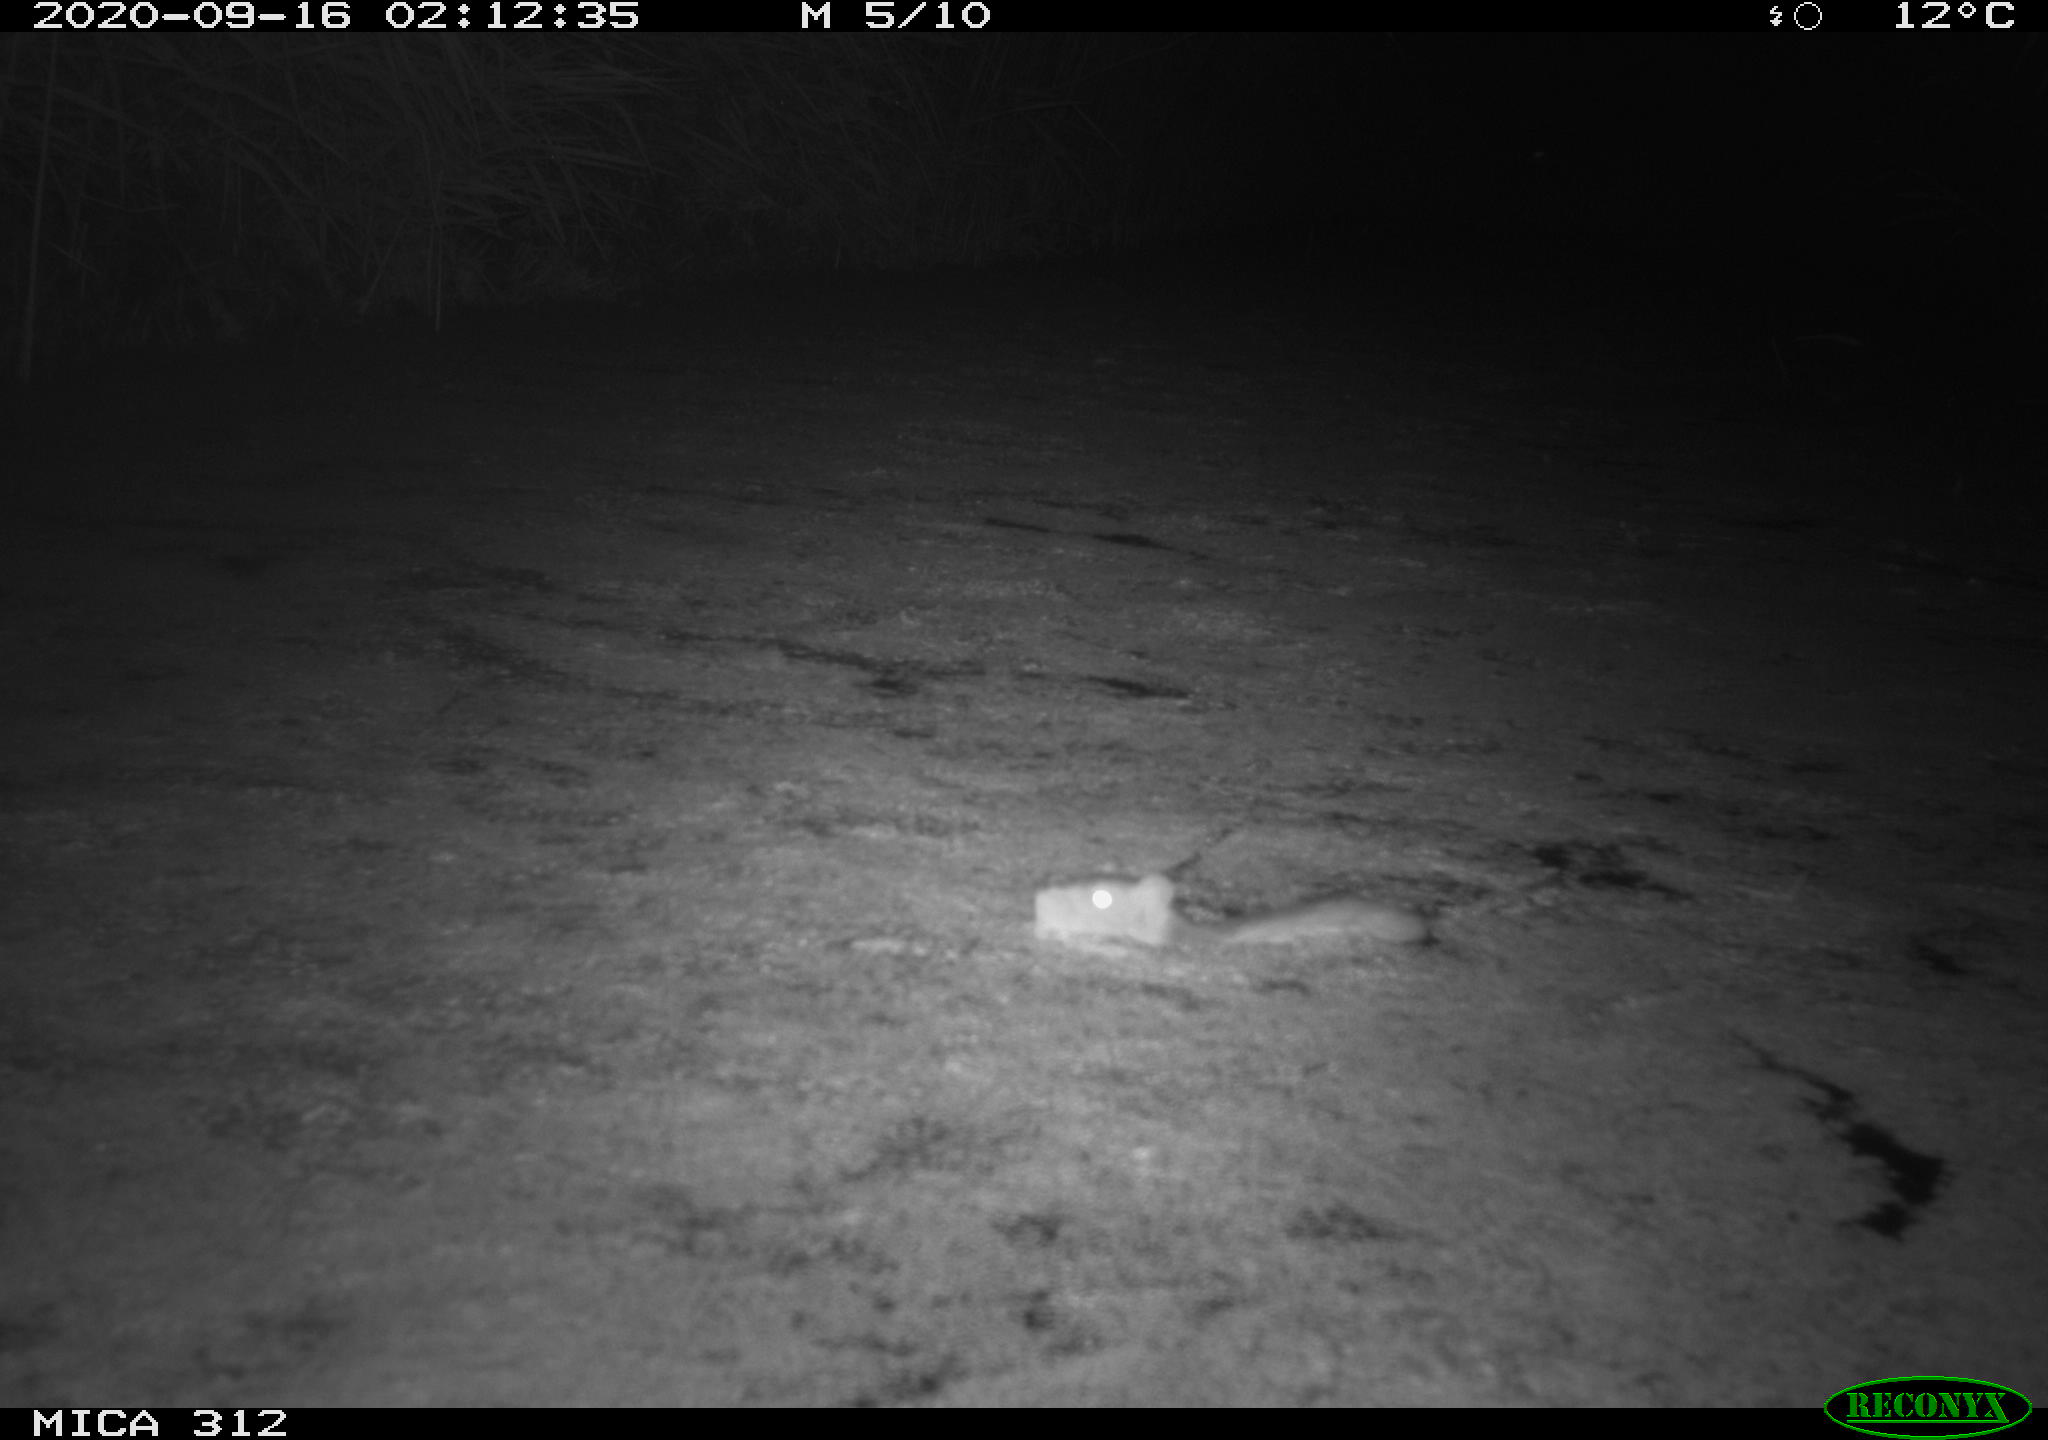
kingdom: Animalia
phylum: Chordata
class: Mammalia
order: Rodentia
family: Muridae
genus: Rattus
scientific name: Rattus norvegicus
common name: Brown rat
